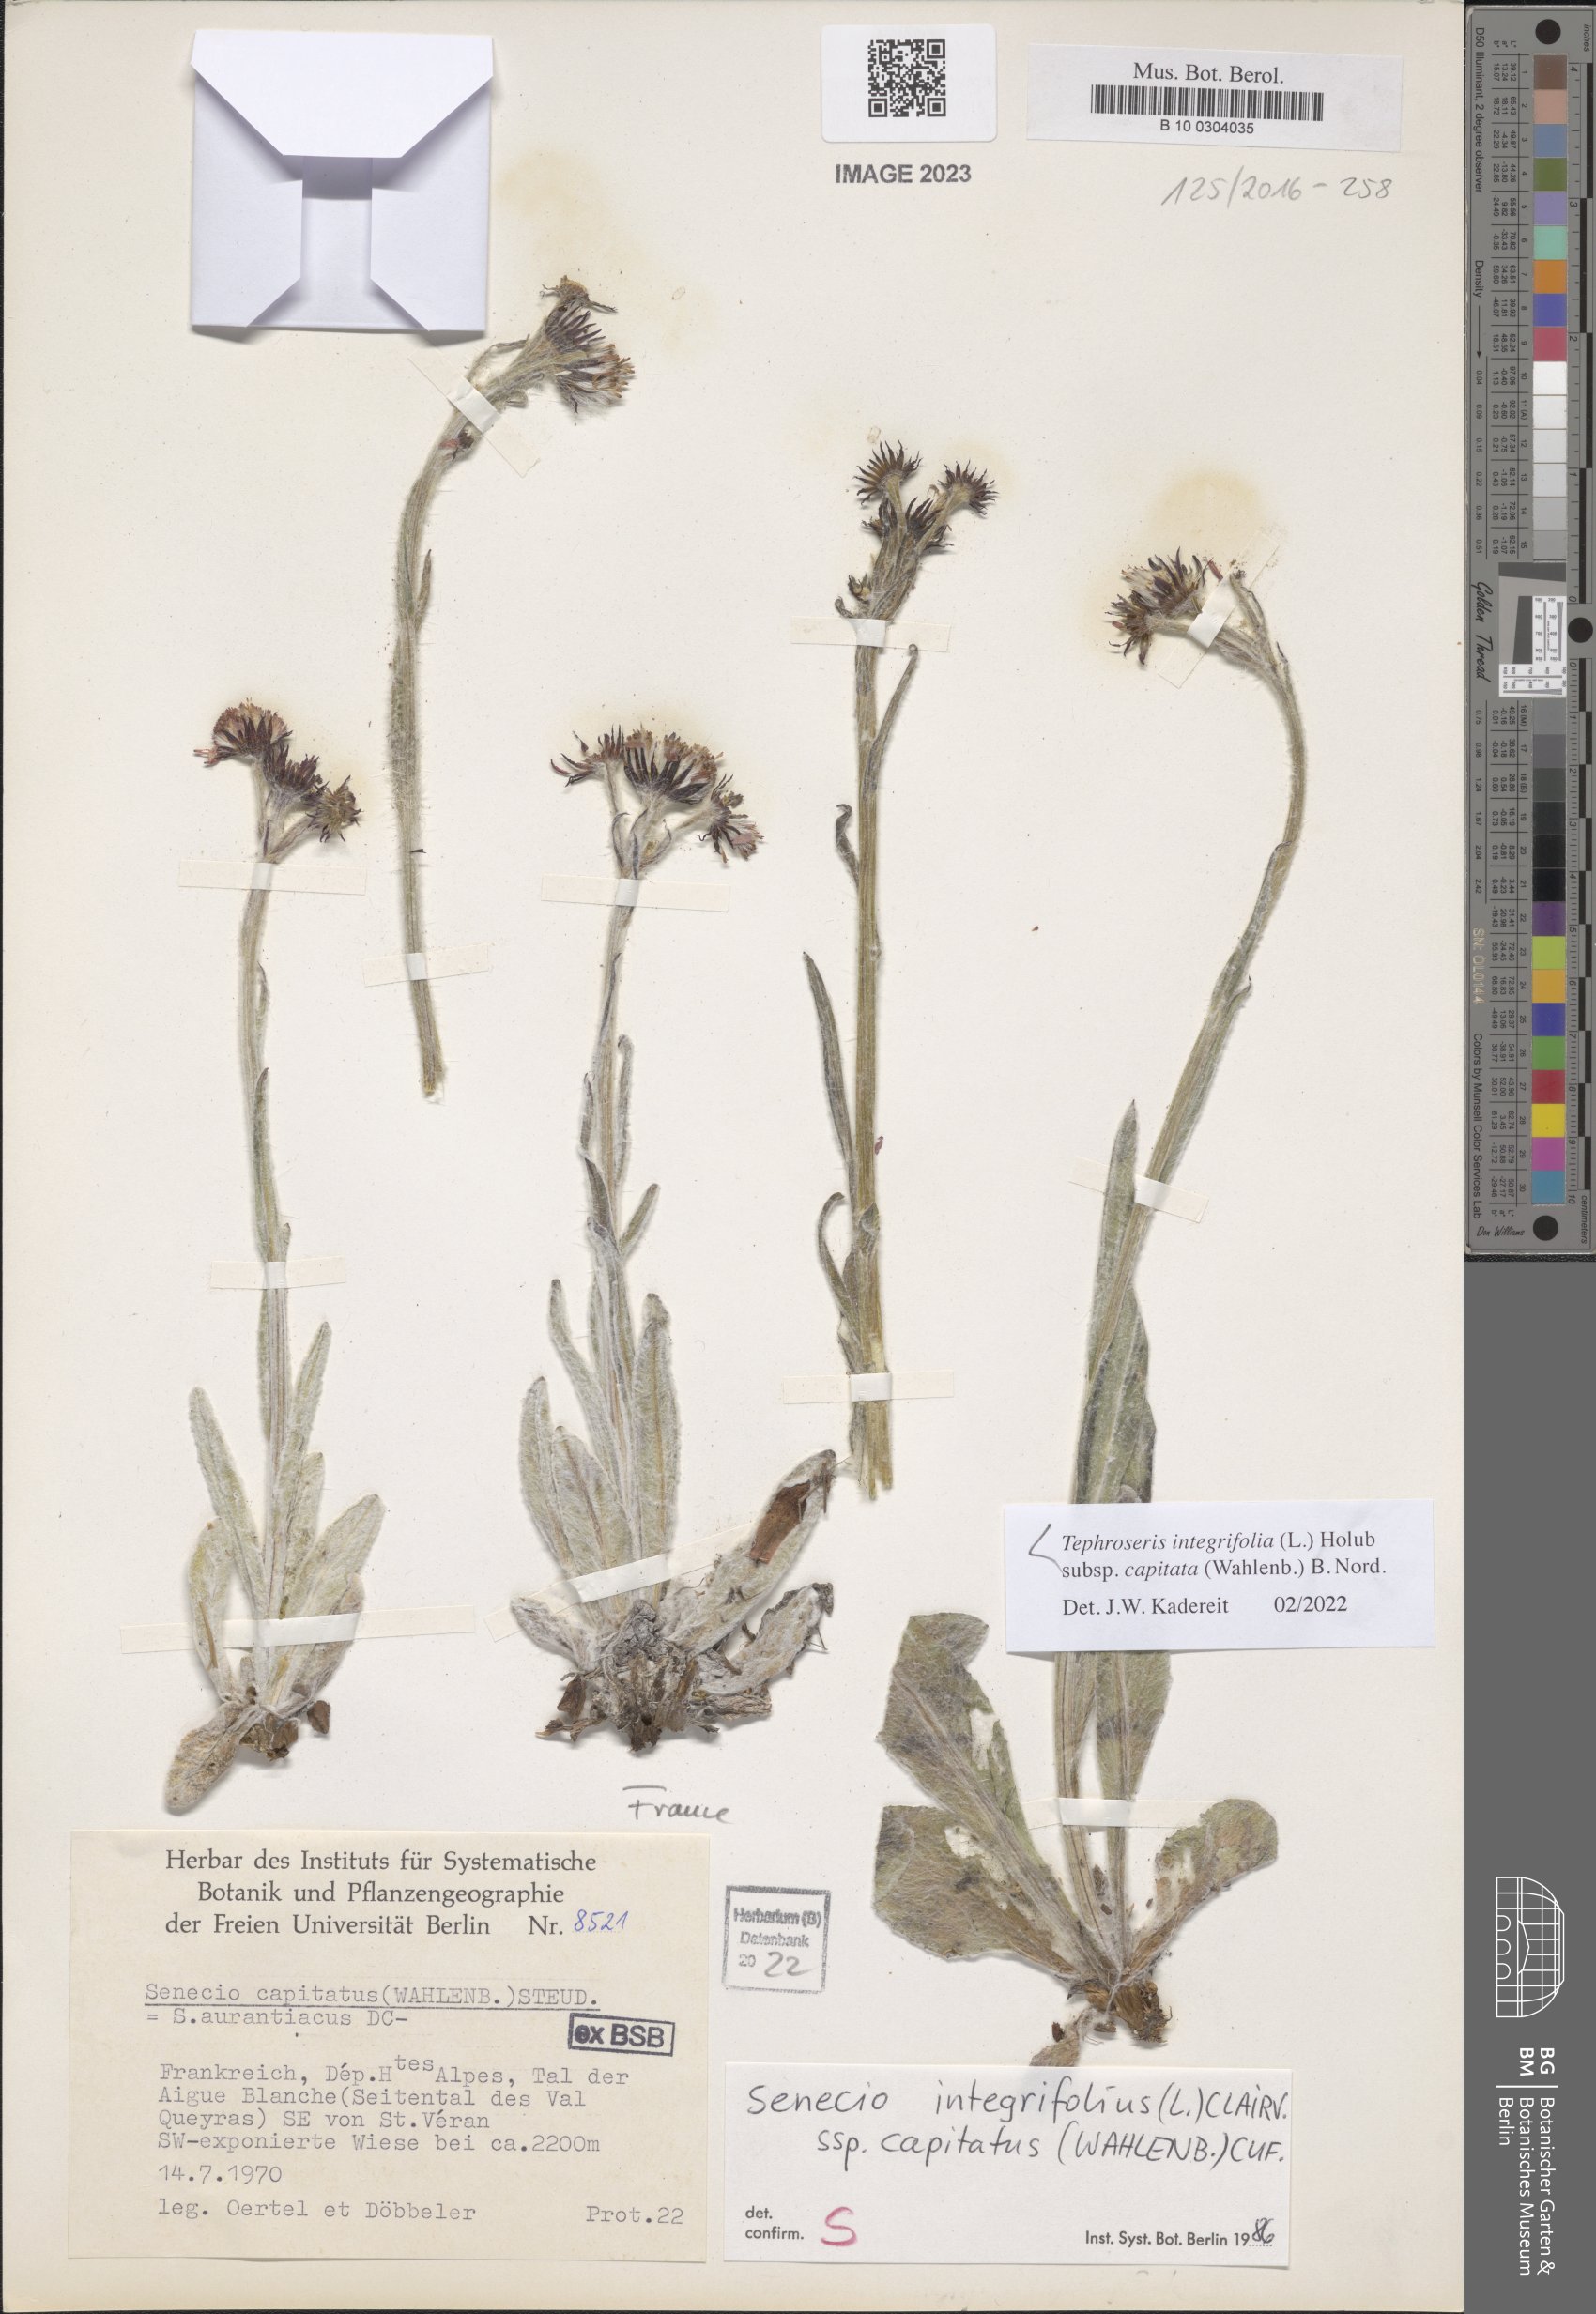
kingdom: Plantae
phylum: Tracheophyta
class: Magnoliopsida
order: Asterales
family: Asteraceae
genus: Tephroseris
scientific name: Tephroseris integrifolia
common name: Field fleawort
